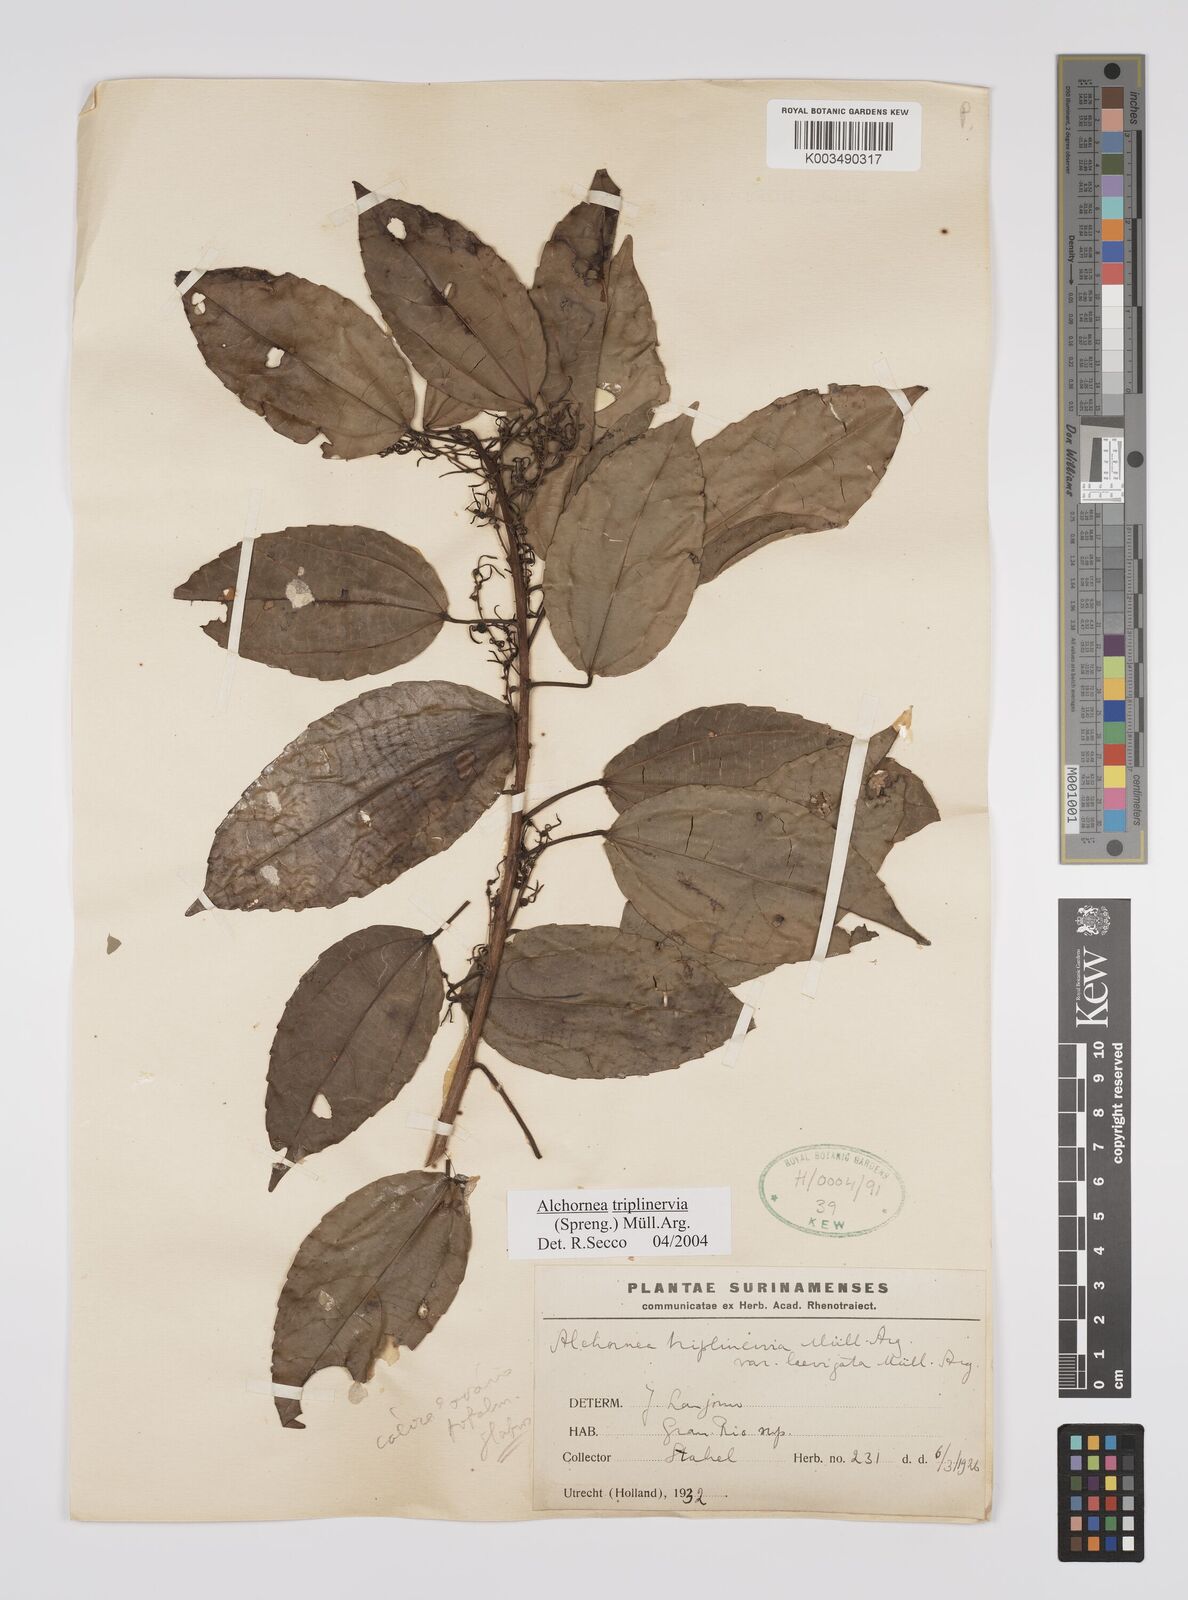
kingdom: Plantae
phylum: Tracheophyta
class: Magnoliopsida
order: Malpighiales
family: Euphorbiaceae
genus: Alchornea
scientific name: Alchornea triplinervia
